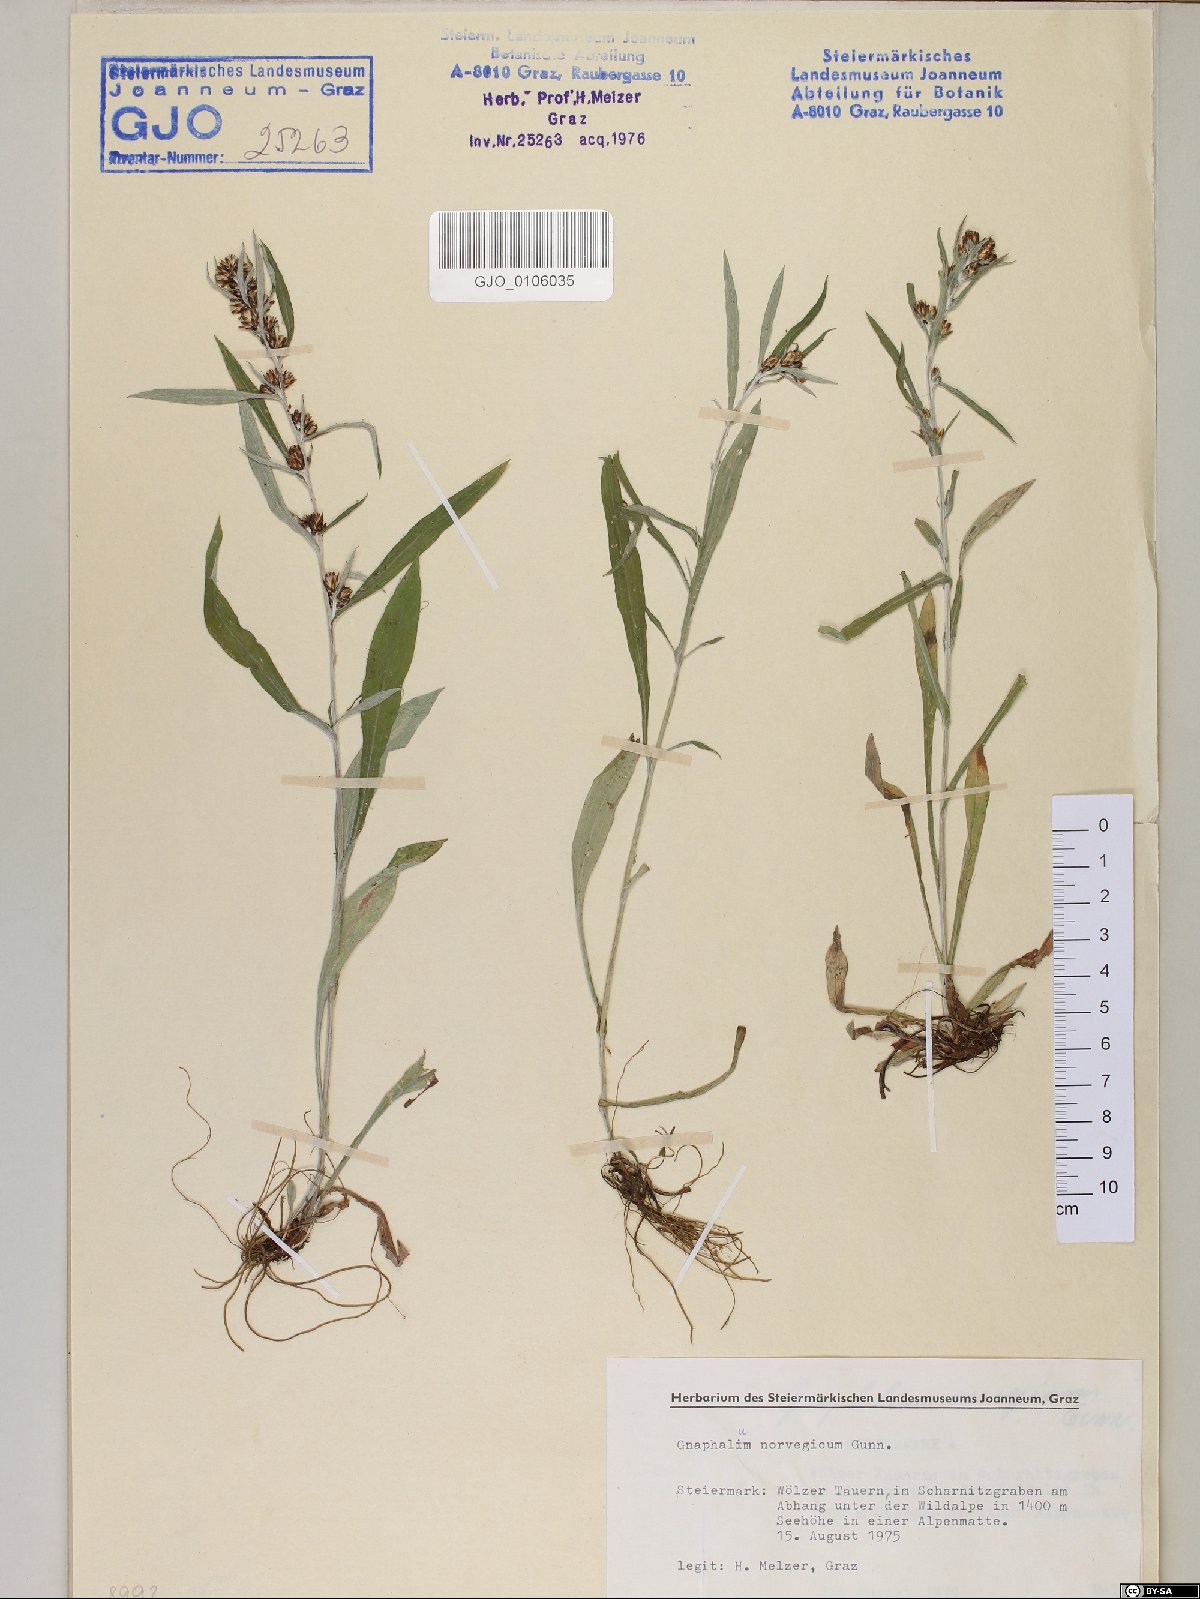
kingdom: Plantae
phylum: Tracheophyta
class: Magnoliopsida
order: Asterales
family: Asteraceae
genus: Omalotheca
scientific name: Omalotheca norvegica
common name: Norwegian arctic-cudweed
